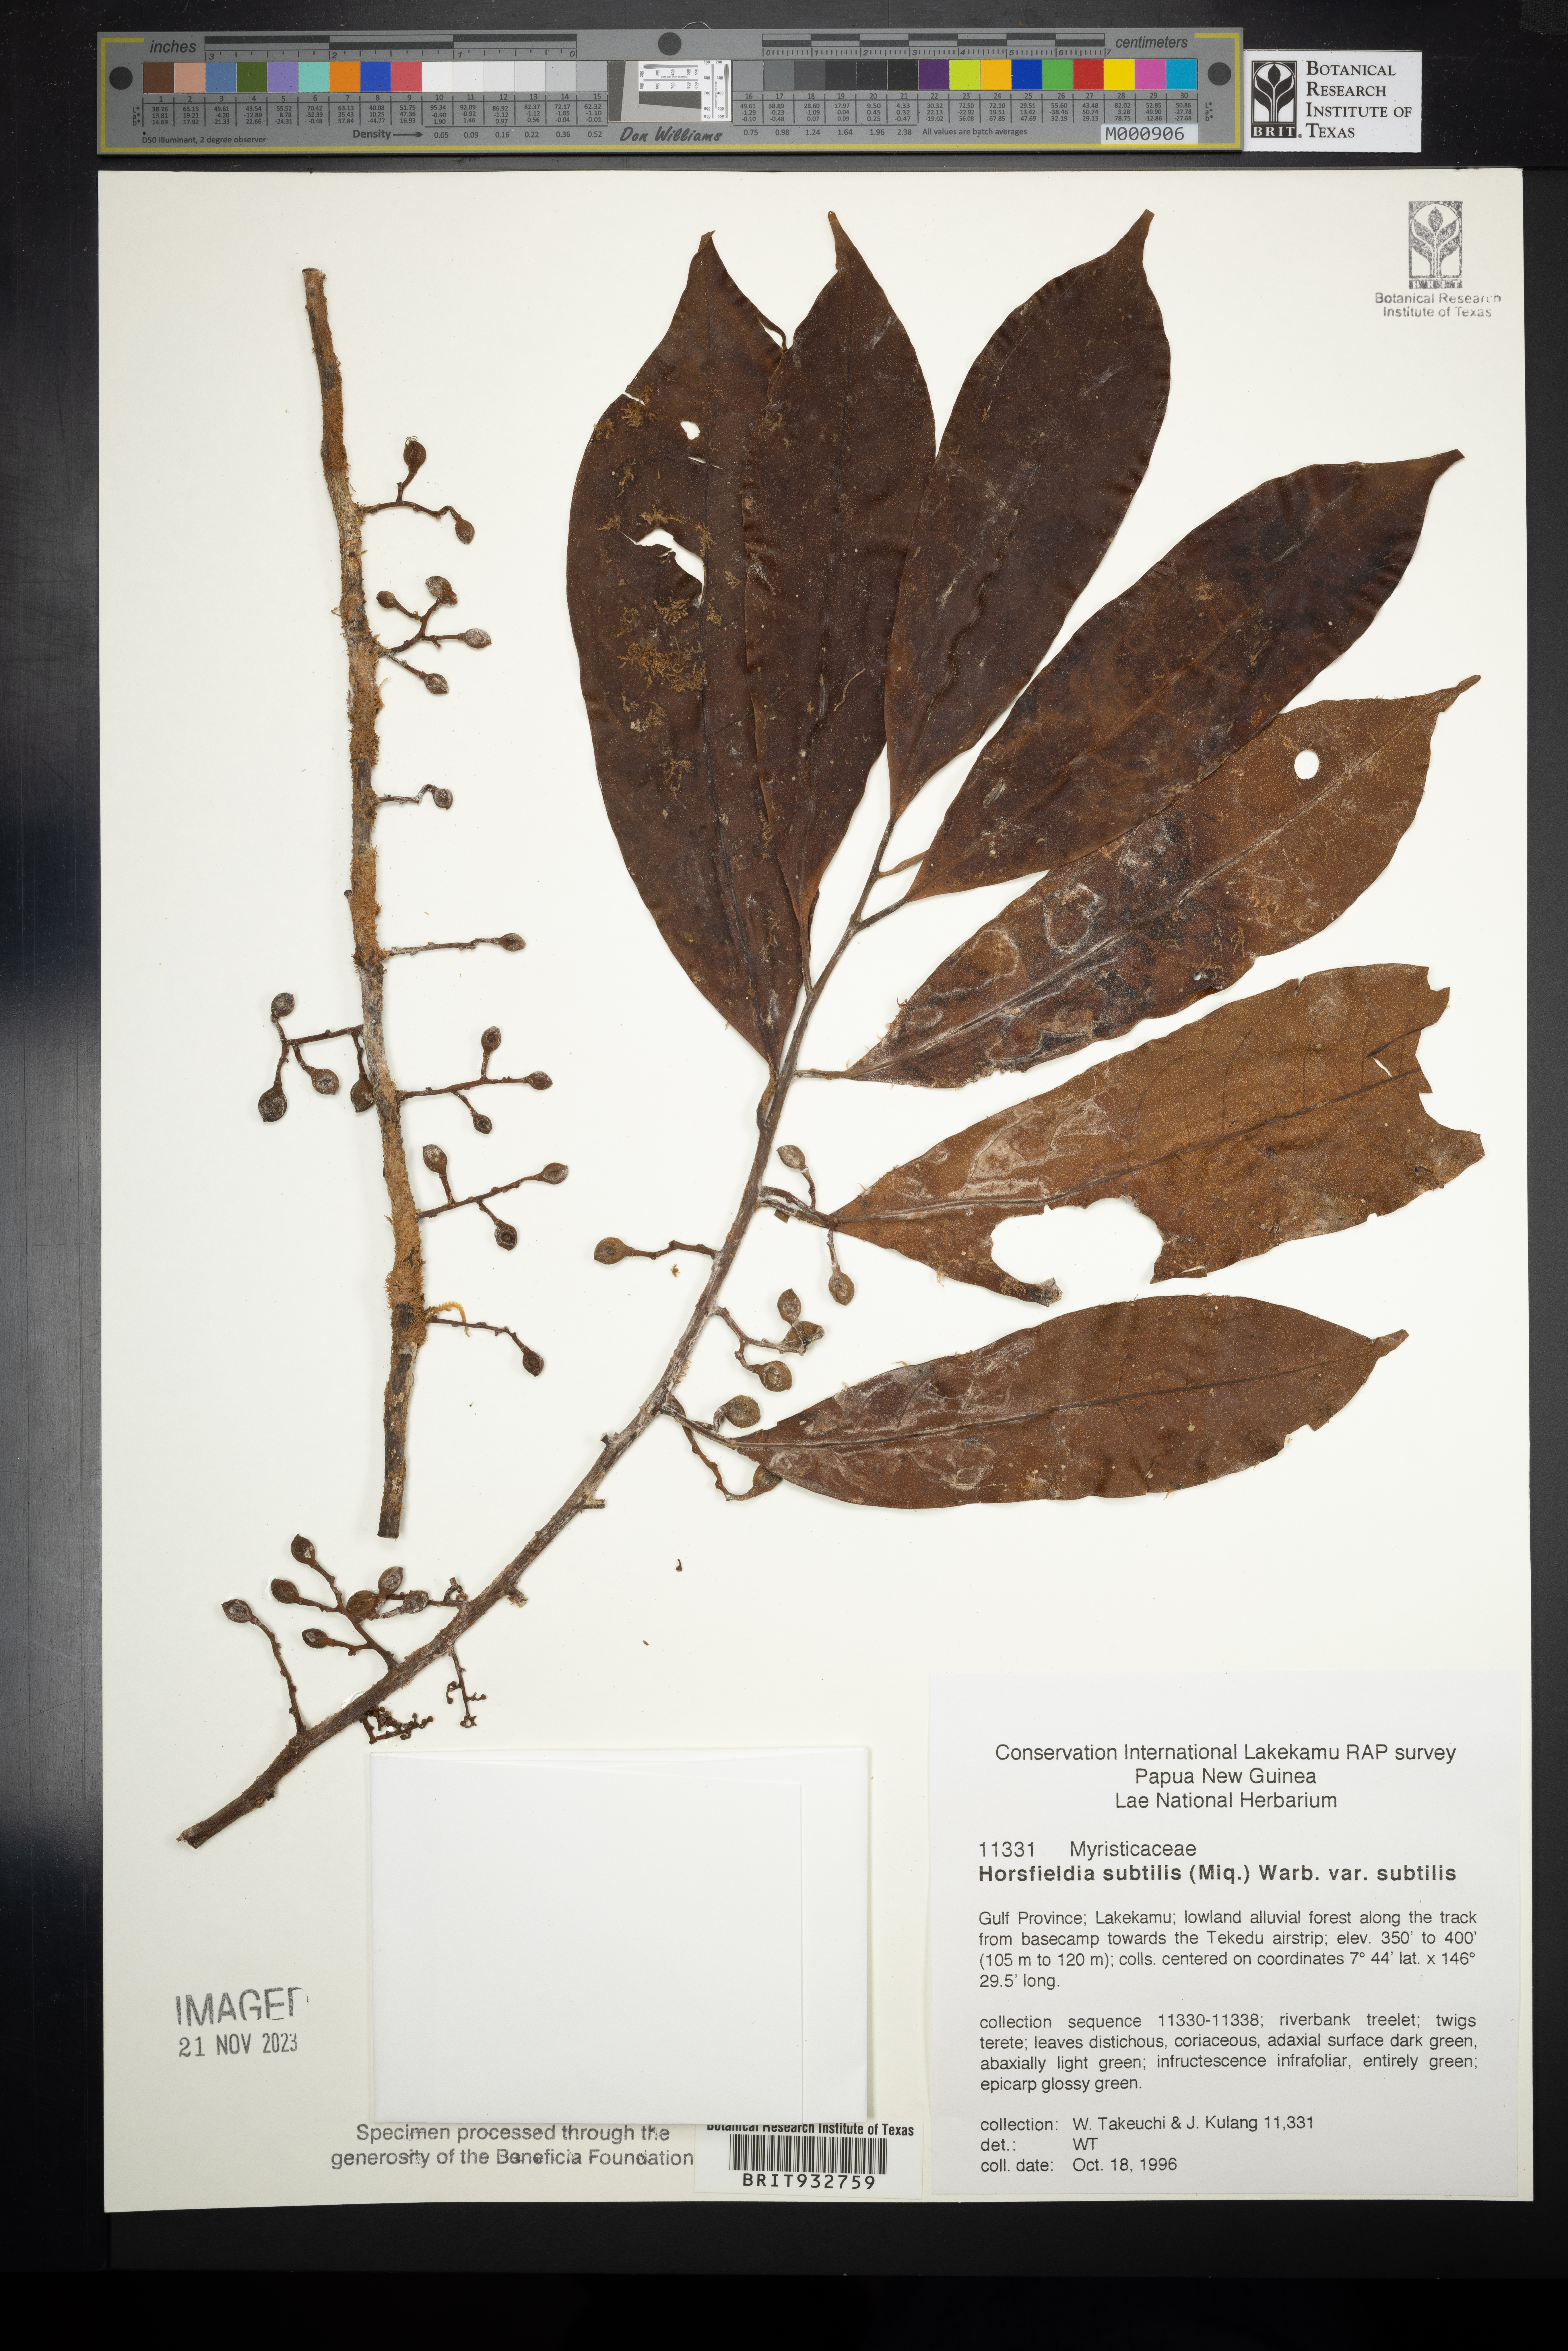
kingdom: Plantae
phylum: Tracheophyta
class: Magnoliopsida
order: Magnoliales
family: Myristicaceae
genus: Horsfieldia
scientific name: Horsfieldia
